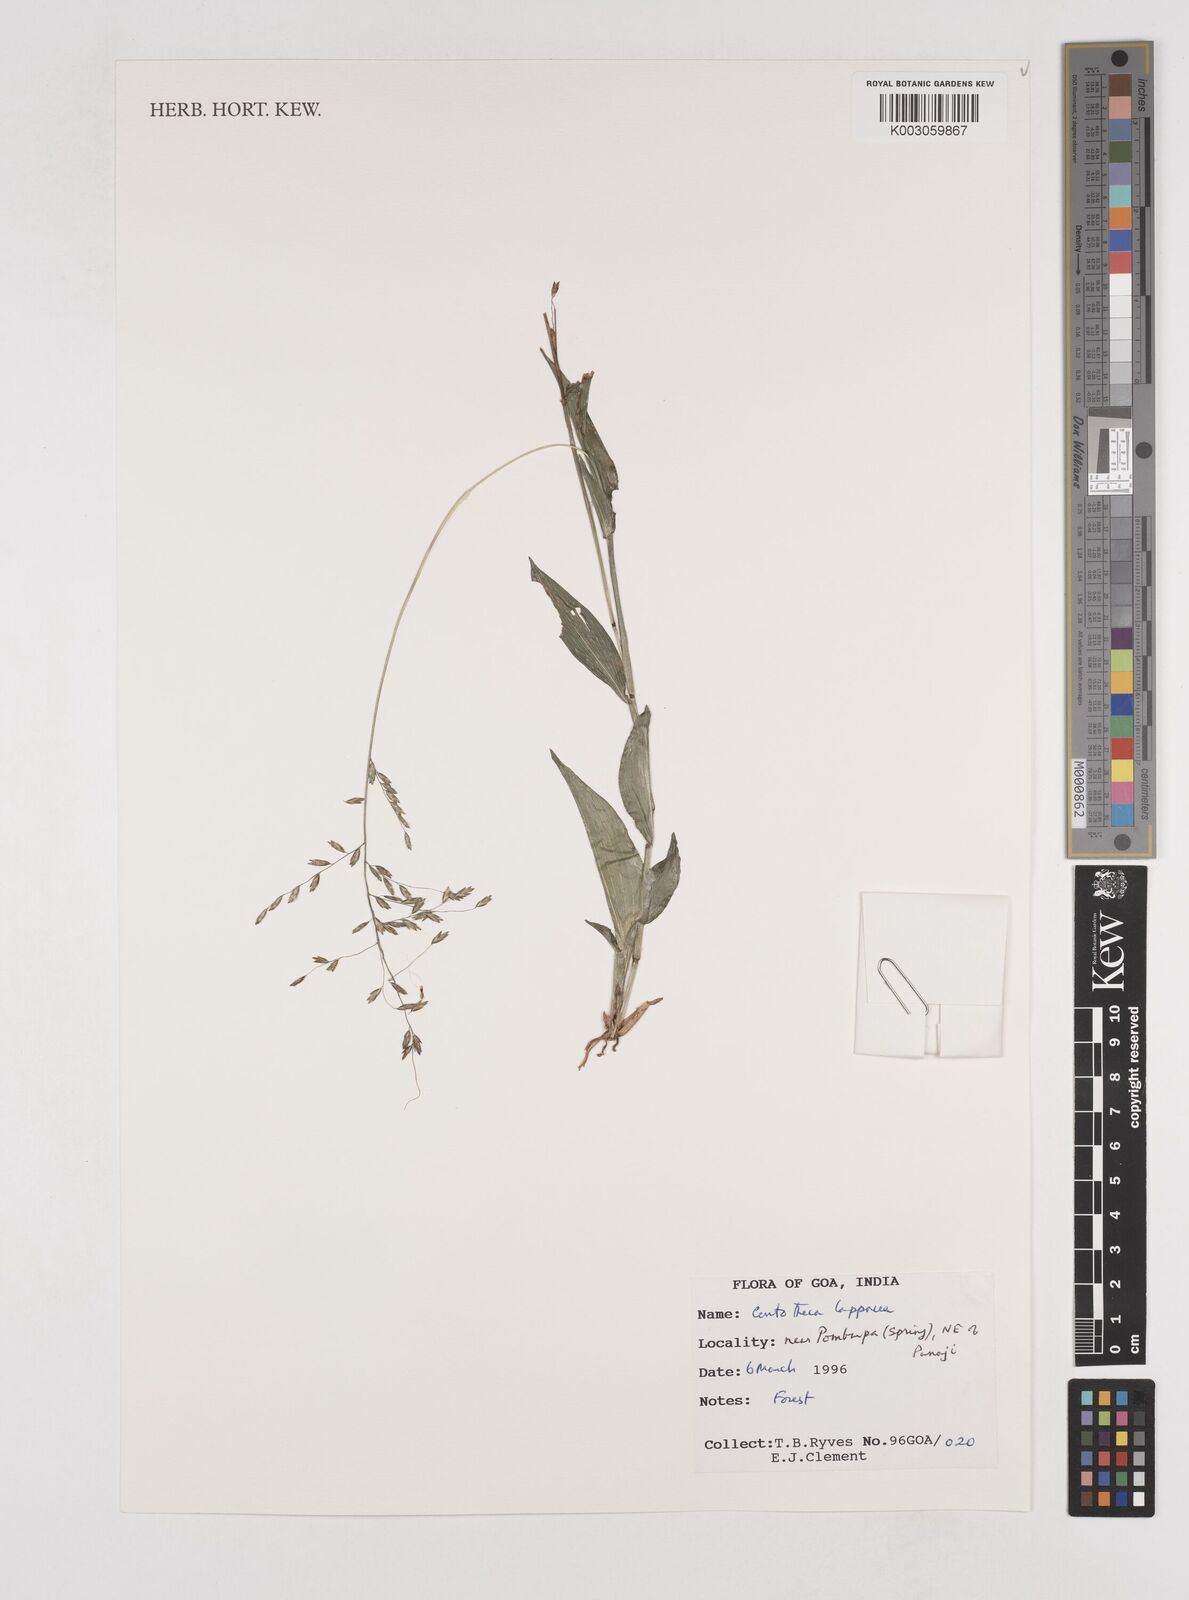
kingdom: Plantae
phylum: Tracheophyta
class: Liliopsida
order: Poales
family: Poaceae
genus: Centotheca
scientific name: Centotheca lappacea
